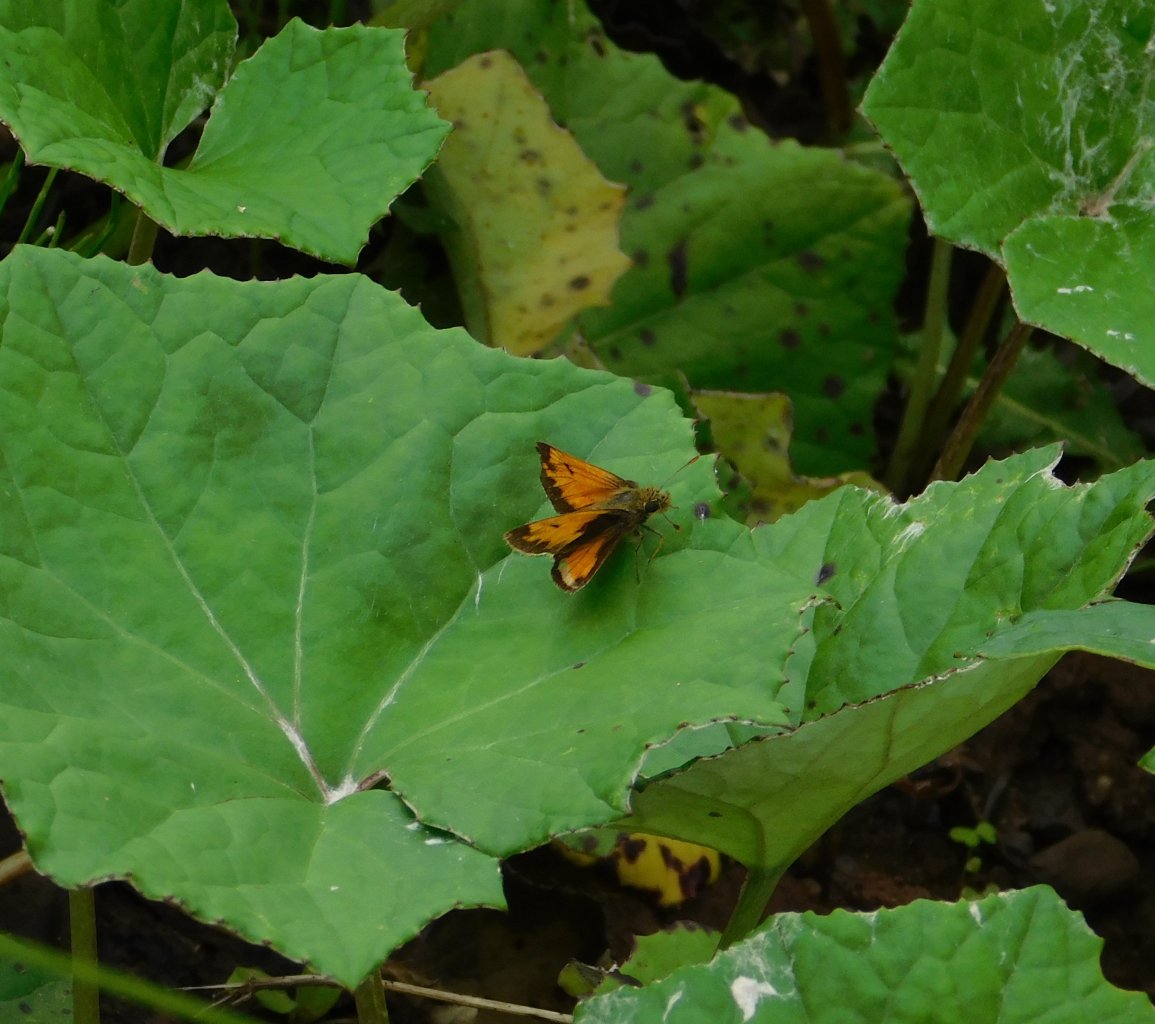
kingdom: Animalia
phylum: Arthropoda
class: Insecta
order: Lepidoptera
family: Hesperiidae
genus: Lon
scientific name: Lon hobomok
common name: Hobomok Skipper
